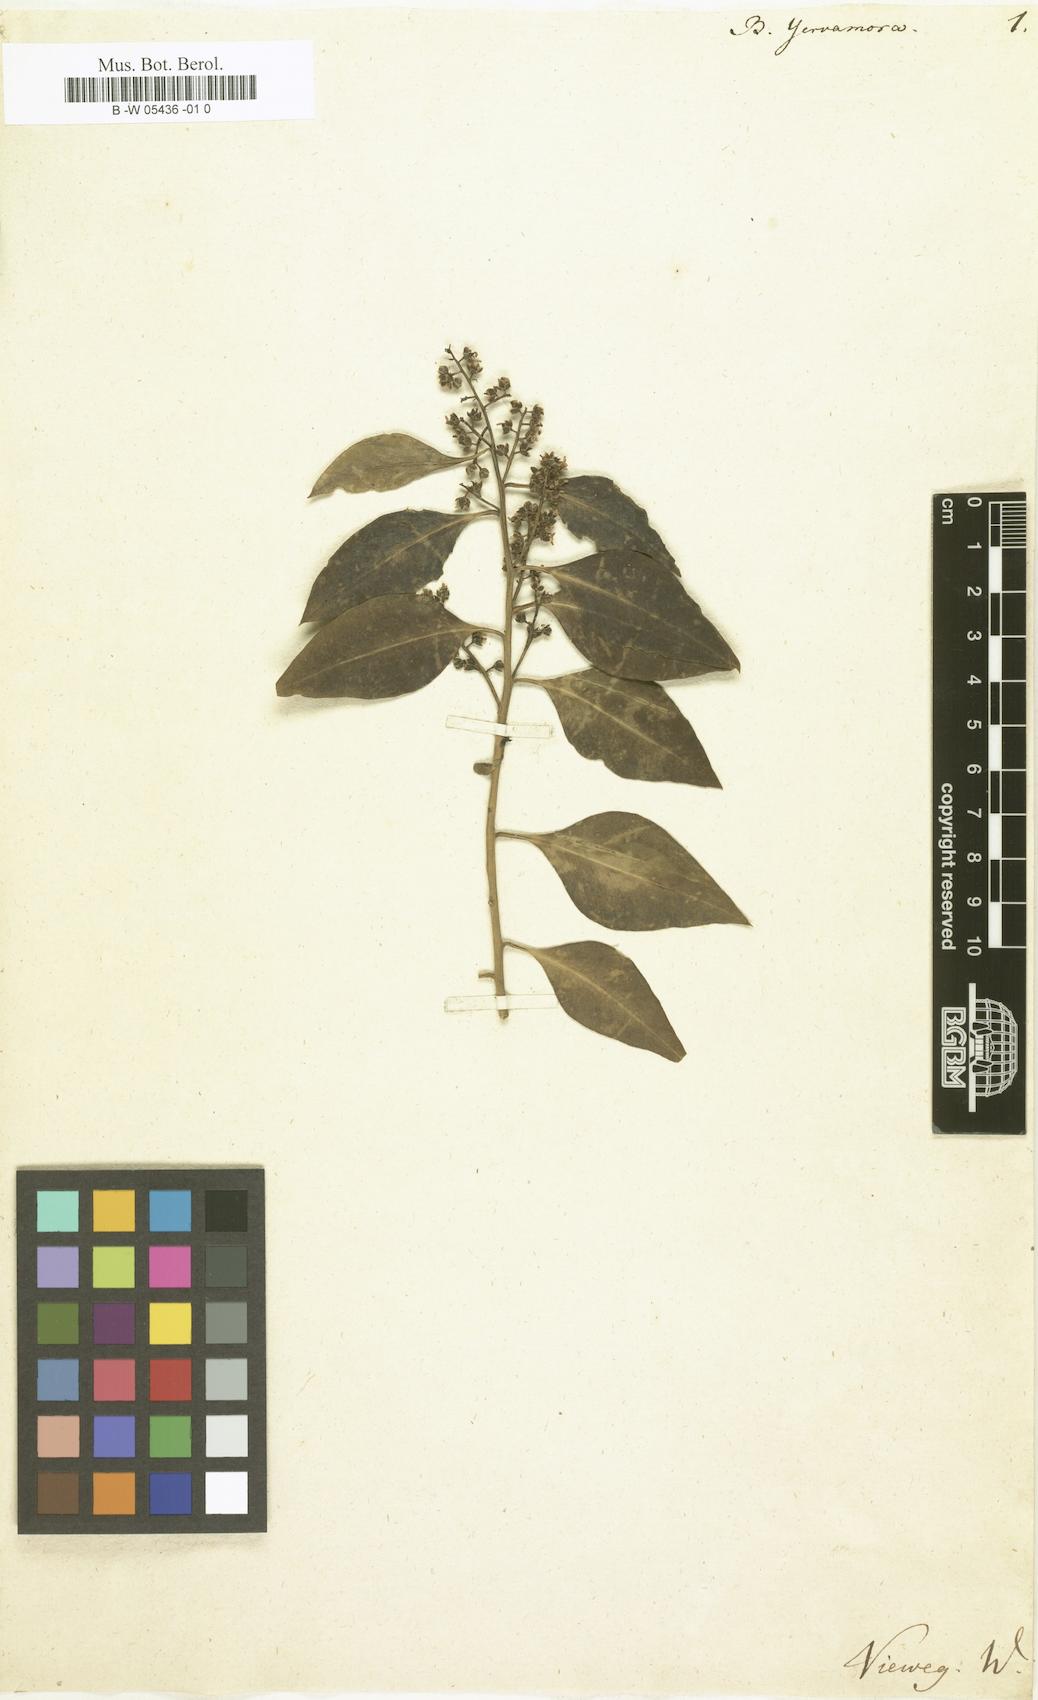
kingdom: Plantae
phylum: Tracheophyta
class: Magnoliopsida
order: Caryophyllales
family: Amaranthaceae
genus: Bosea
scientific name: Bosea yervamora
